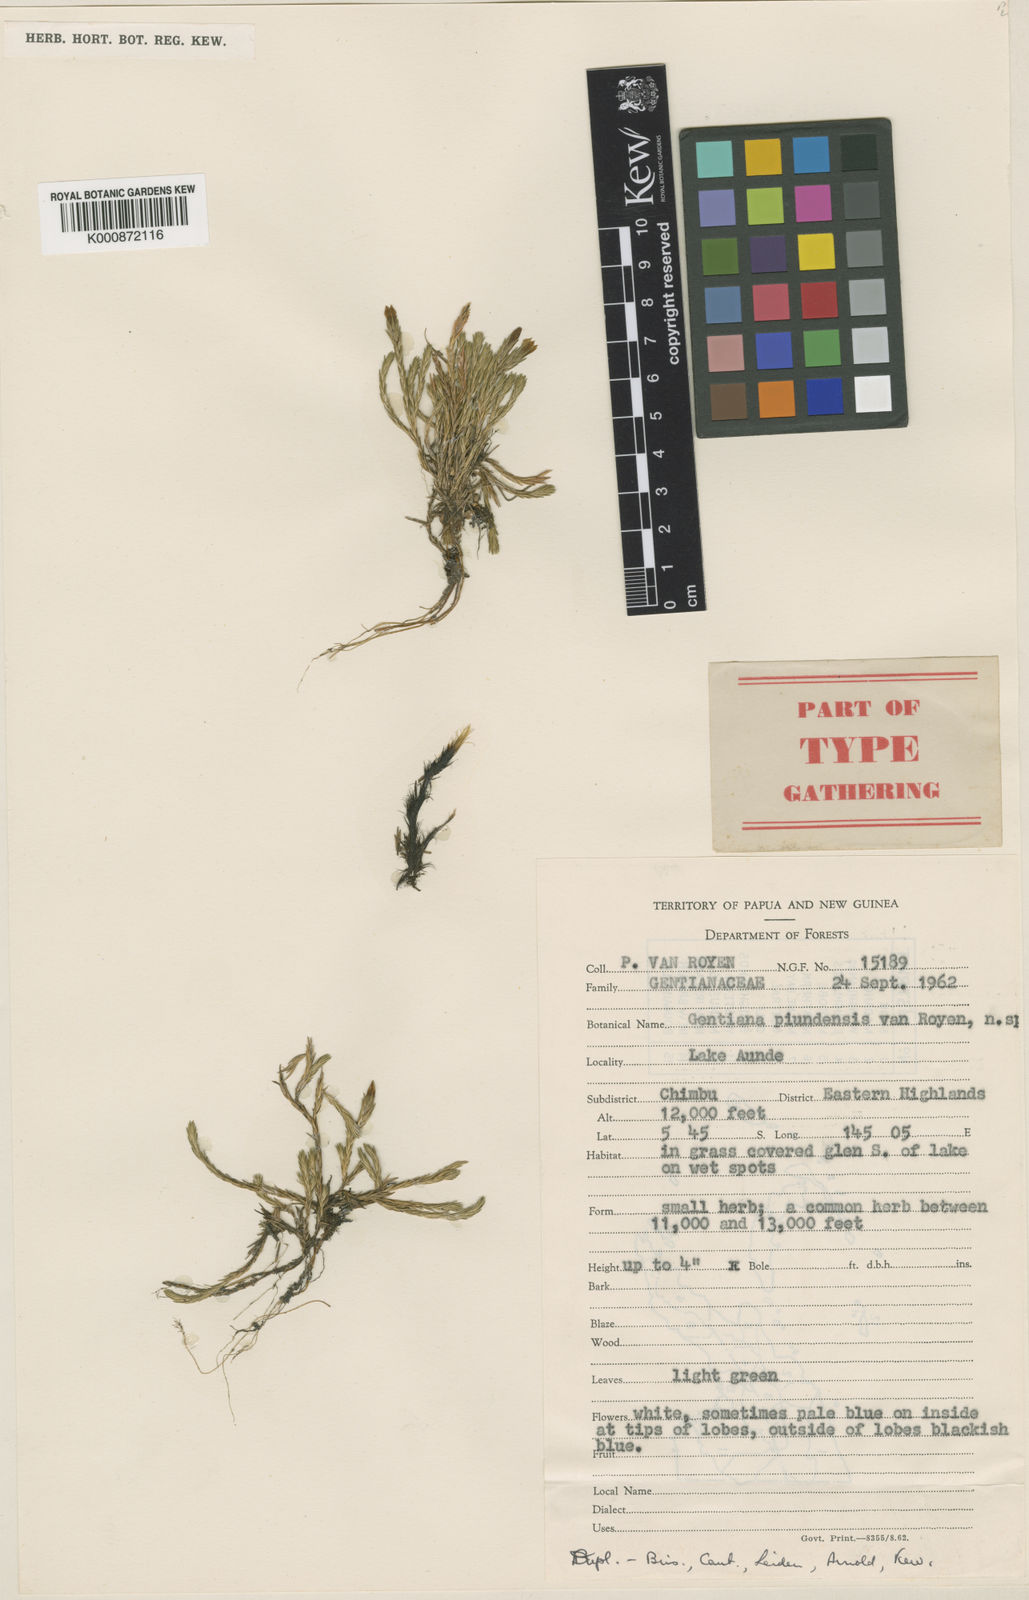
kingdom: Plantae
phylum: Tracheophyta
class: Magnoliopsida
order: Gentianales
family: Gentianaceae
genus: Gentiana
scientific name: Gentiana macgregoryi
